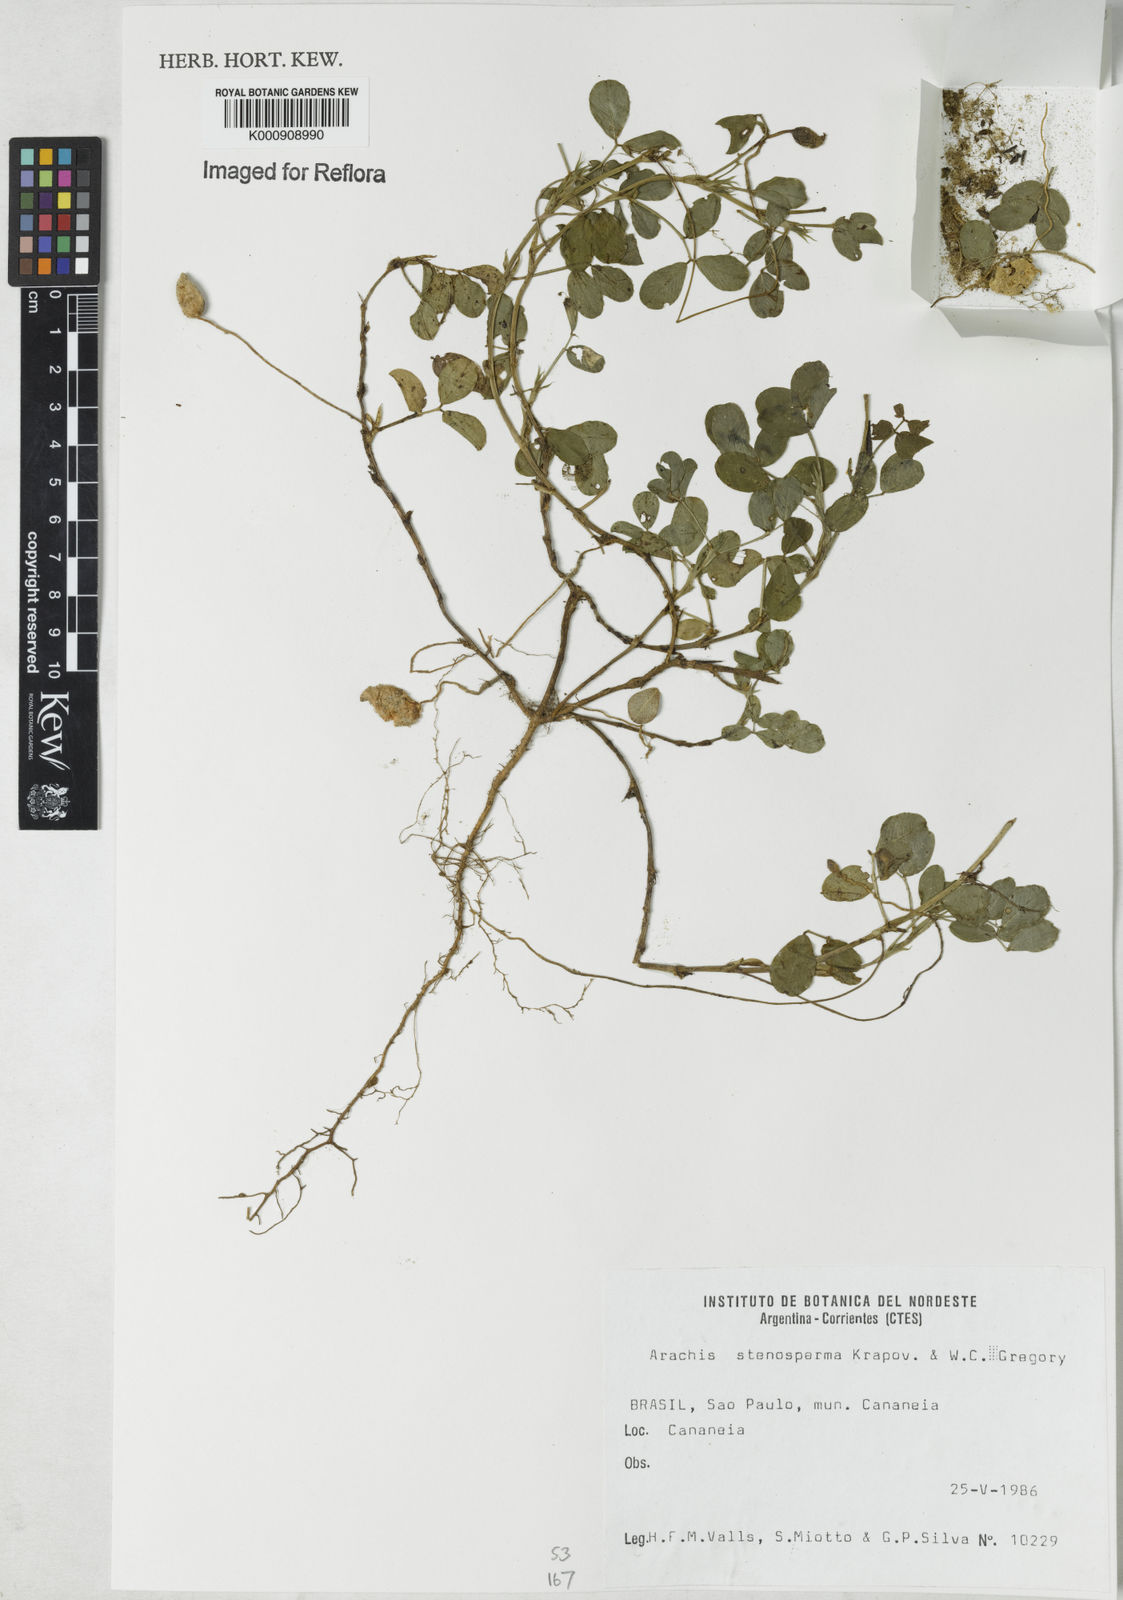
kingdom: Plantae
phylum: Tracheophyta
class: Magnoliopsida
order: Fabales
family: Fabaceae
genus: Arachis
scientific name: Arachis stenosperma
